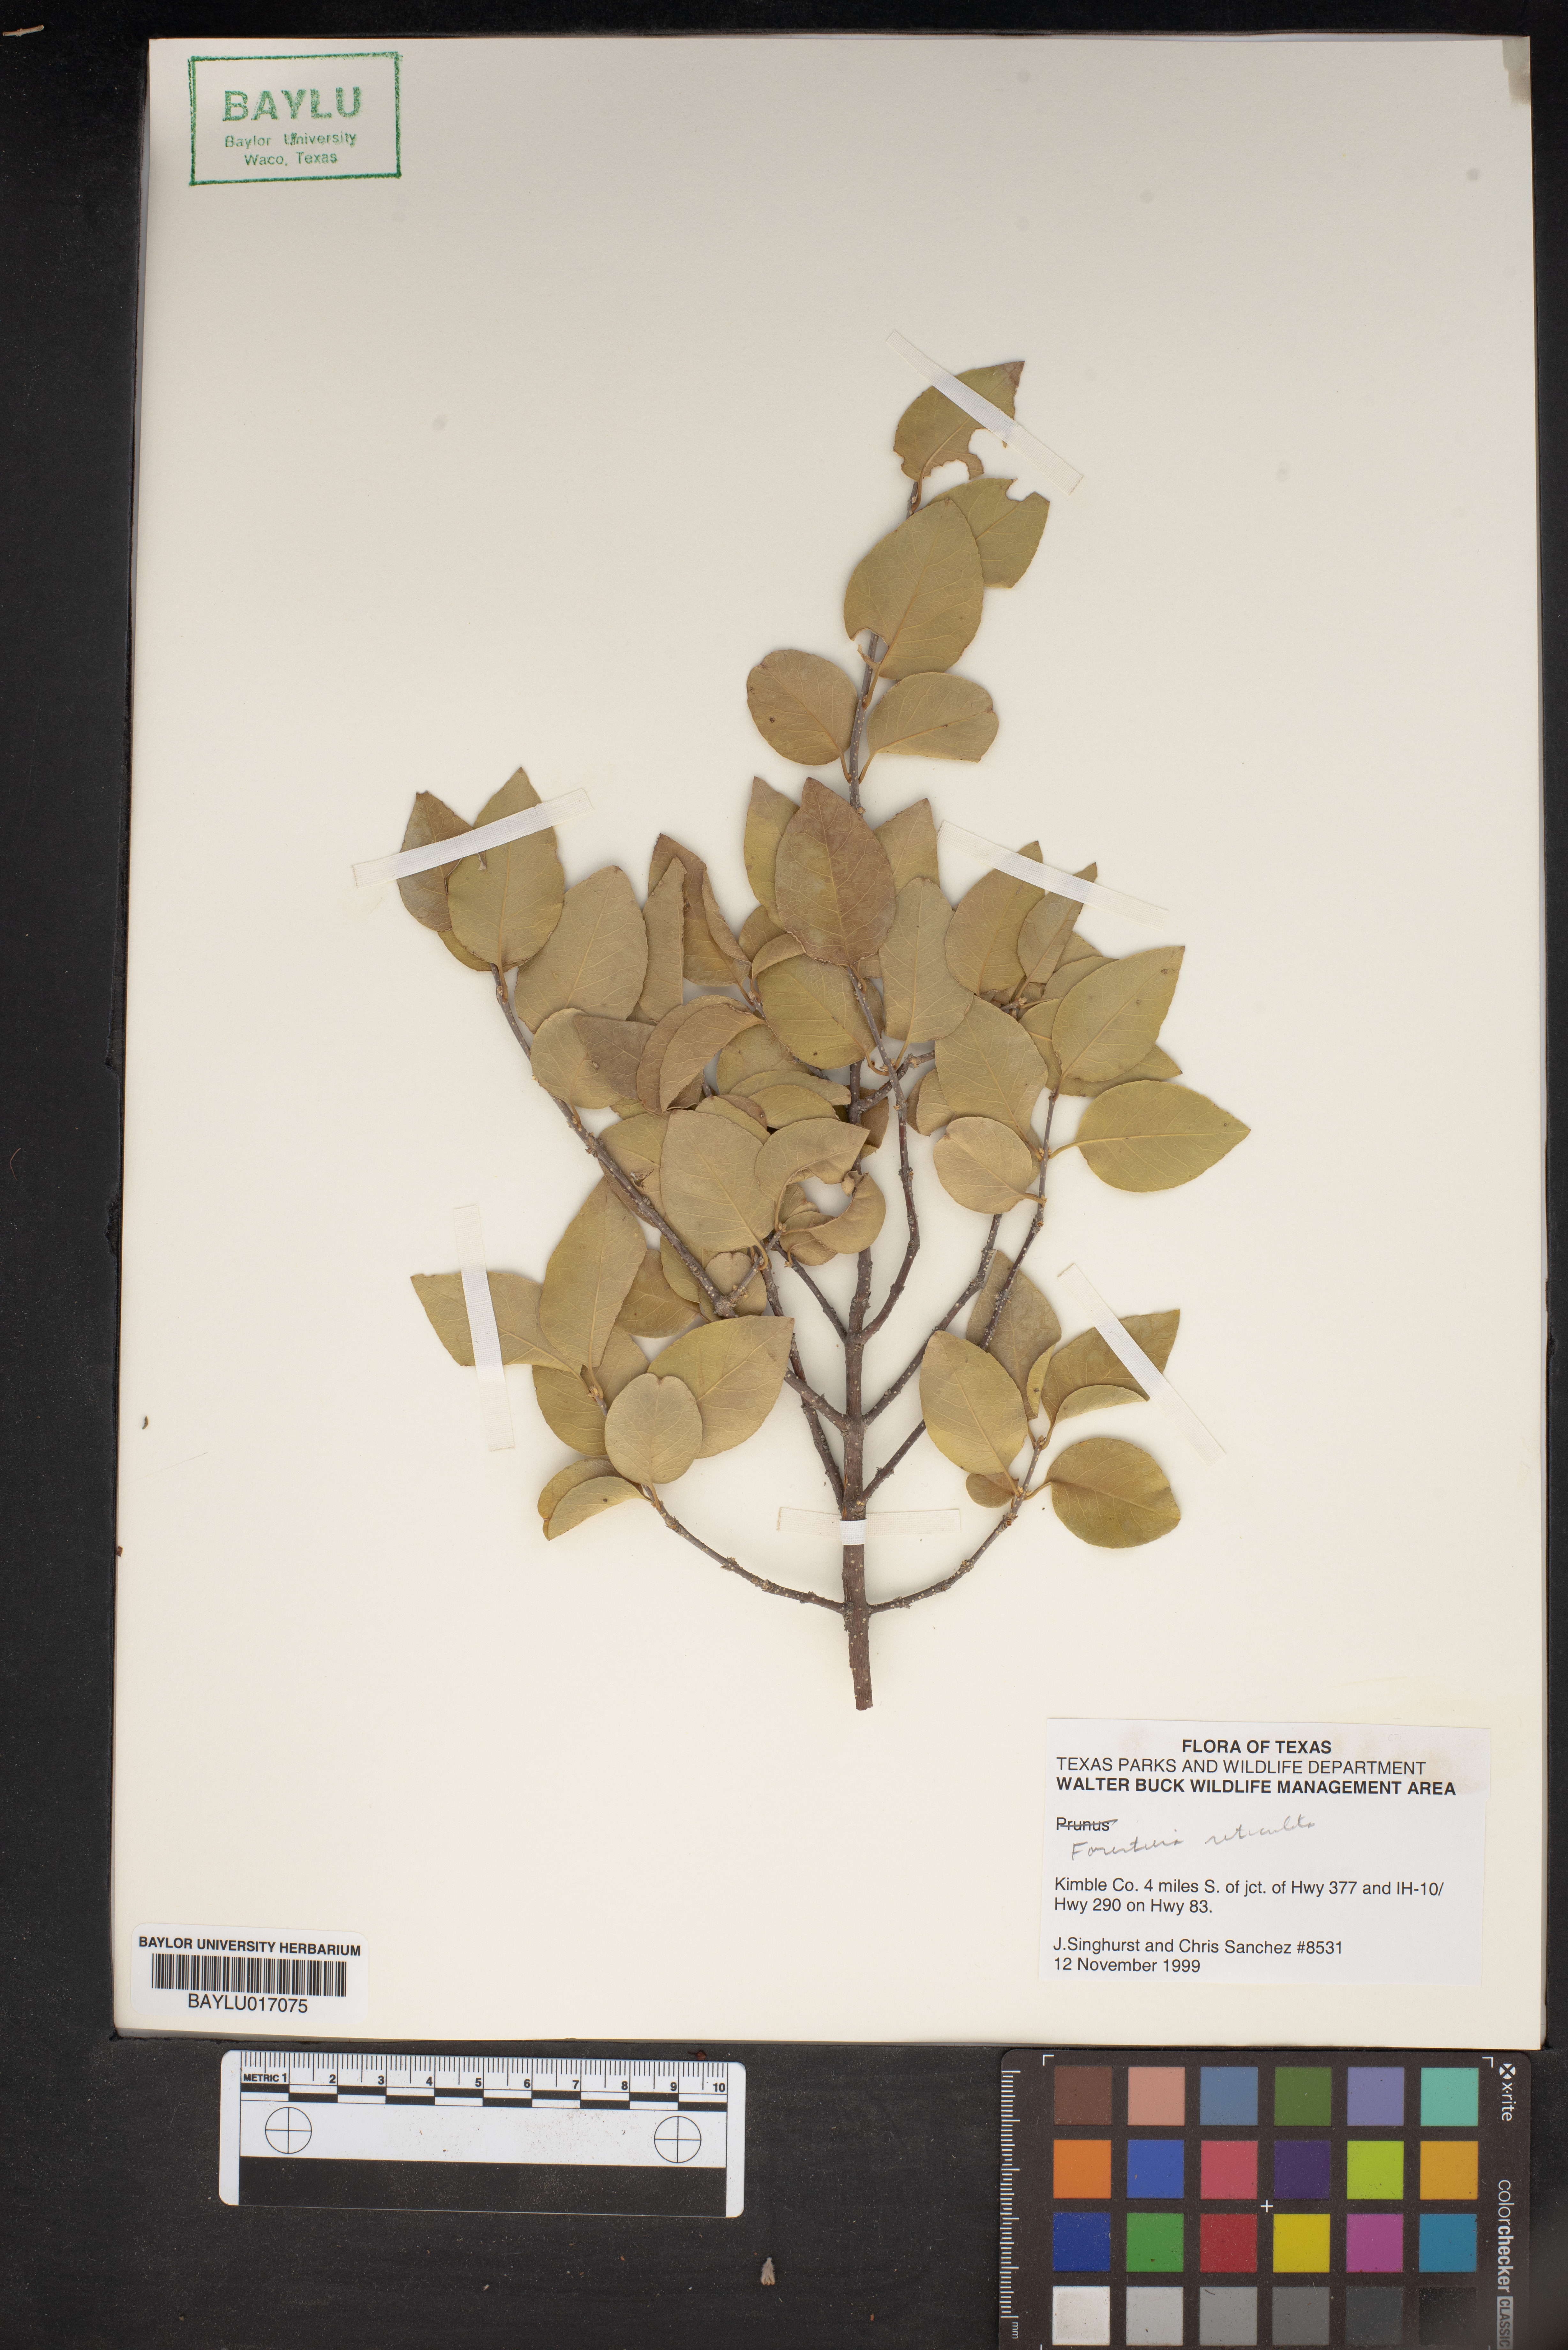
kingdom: Plantae
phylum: Tracheophyta
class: Magnoliopsida
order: Lamiales
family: Oleaceae
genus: Forestiera
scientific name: Forestiera reticulata
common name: Netleaf swamp-privet
